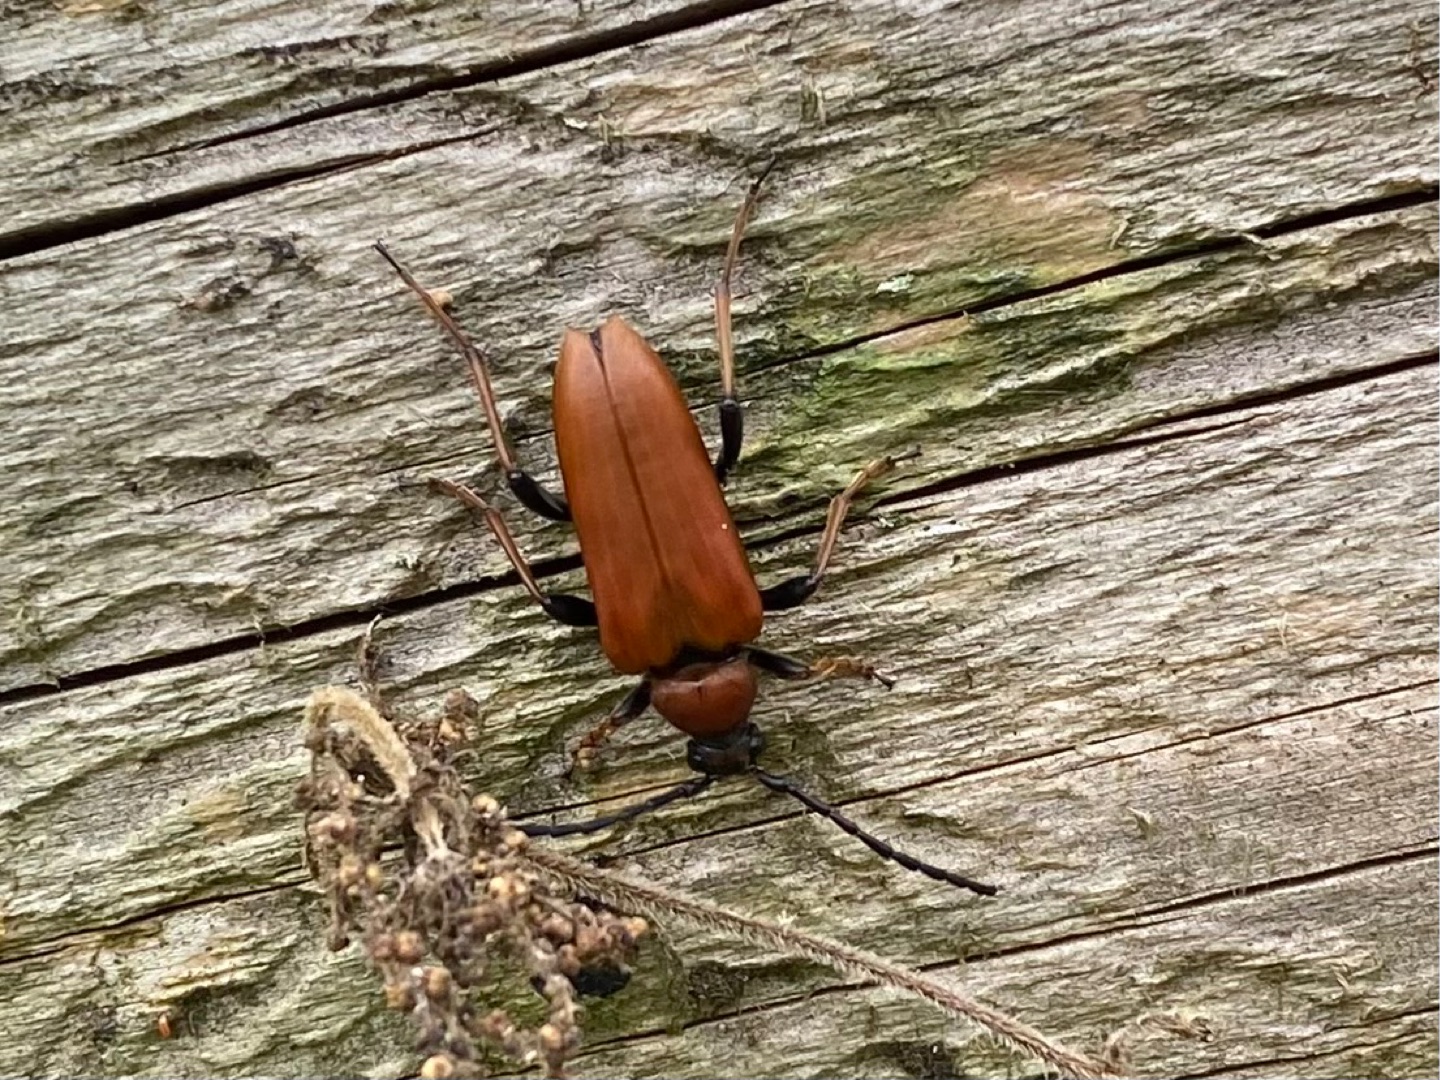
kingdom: Animalia
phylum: Arthropoda
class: Insecta
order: Coleoptera
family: Cerambycidae
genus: Stictoleptura
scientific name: Stictoleptura rubra
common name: Rød blomsterbuk
